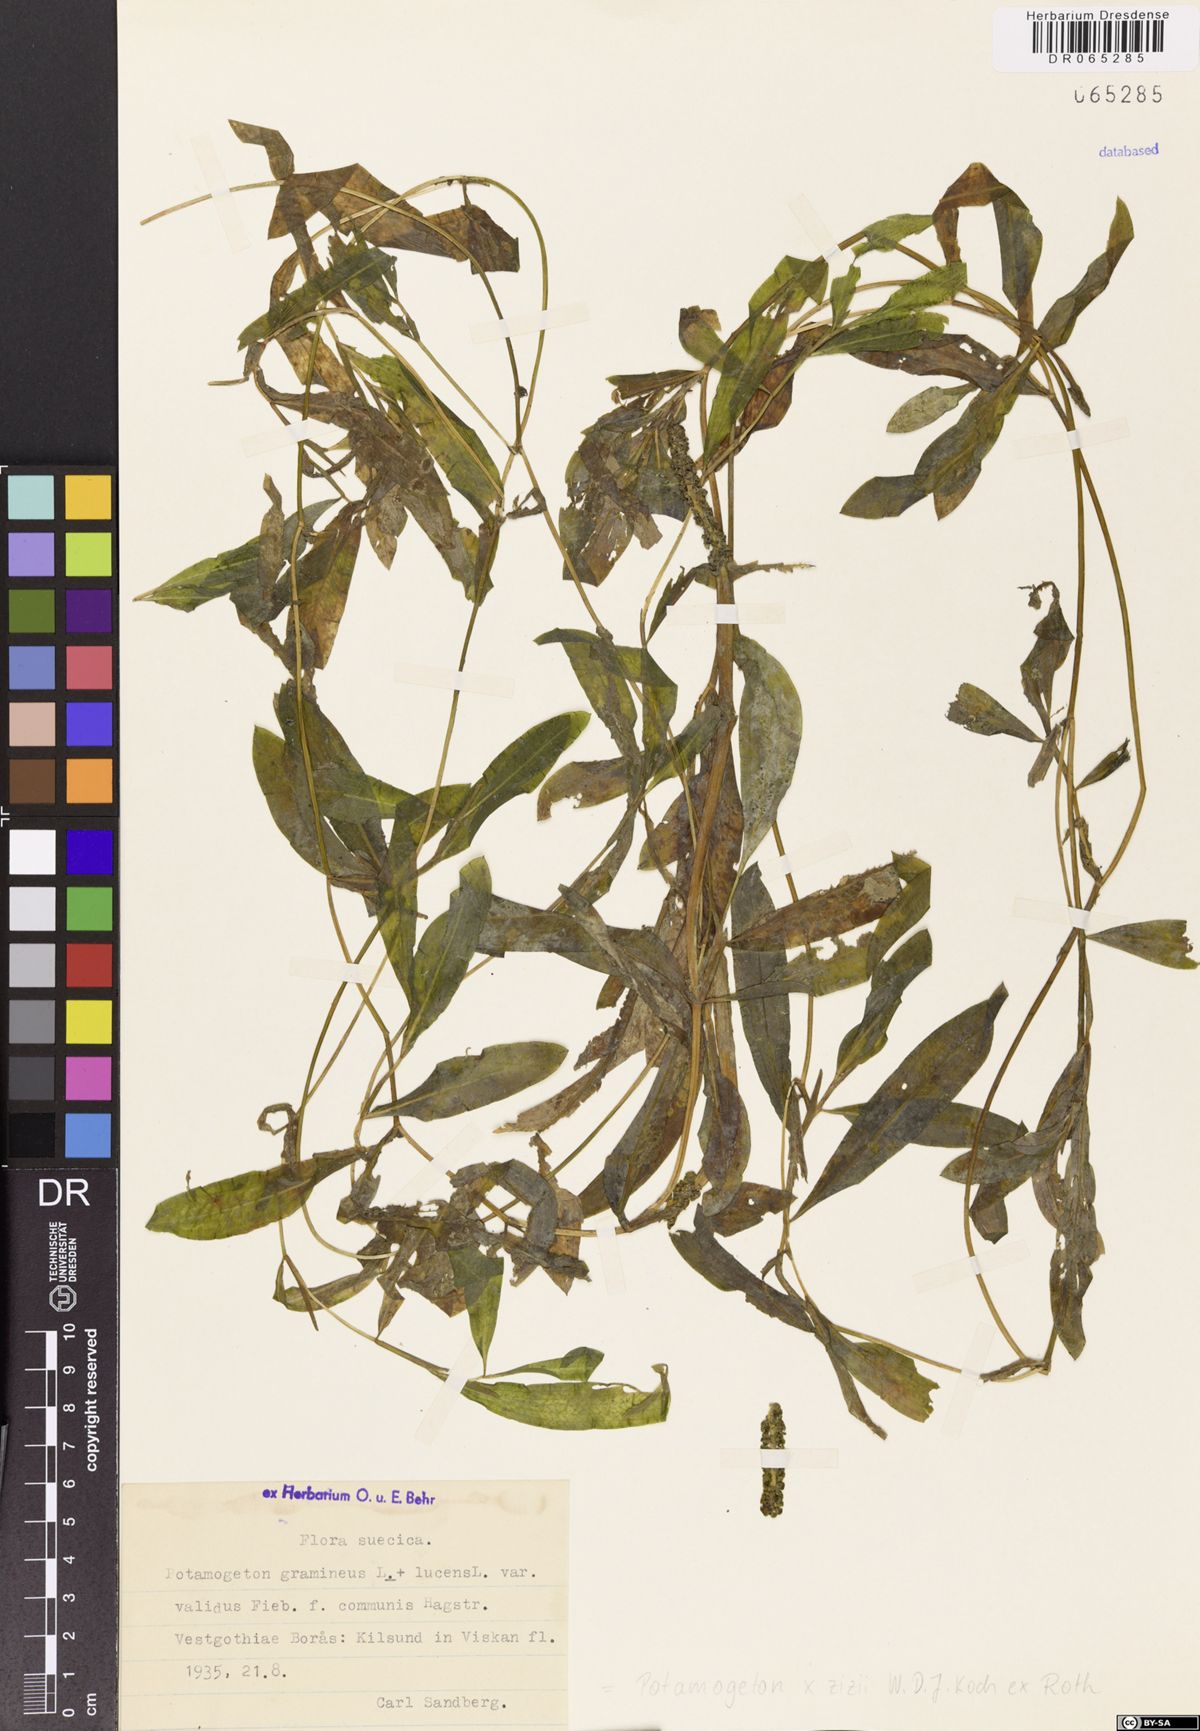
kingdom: Plantae
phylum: Tracheophyta
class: Liliopsida
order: Alismatales
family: Potamogetonaceae
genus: Potamogeton
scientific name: Potamogeton angustifolius
